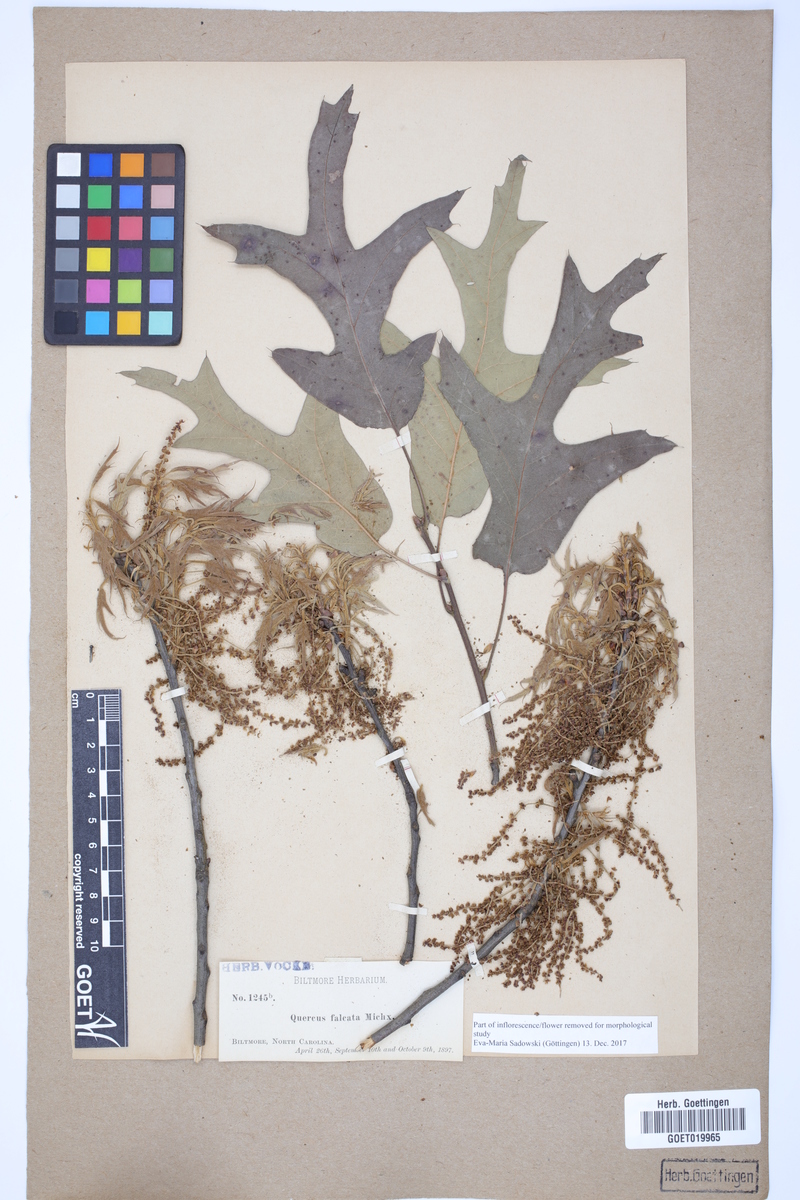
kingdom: Plantae
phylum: Tracheophyta
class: Magnoliopsida
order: Fagales
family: Fagaceae
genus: Quercus
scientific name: Quercus falcata
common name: Southern red oak
